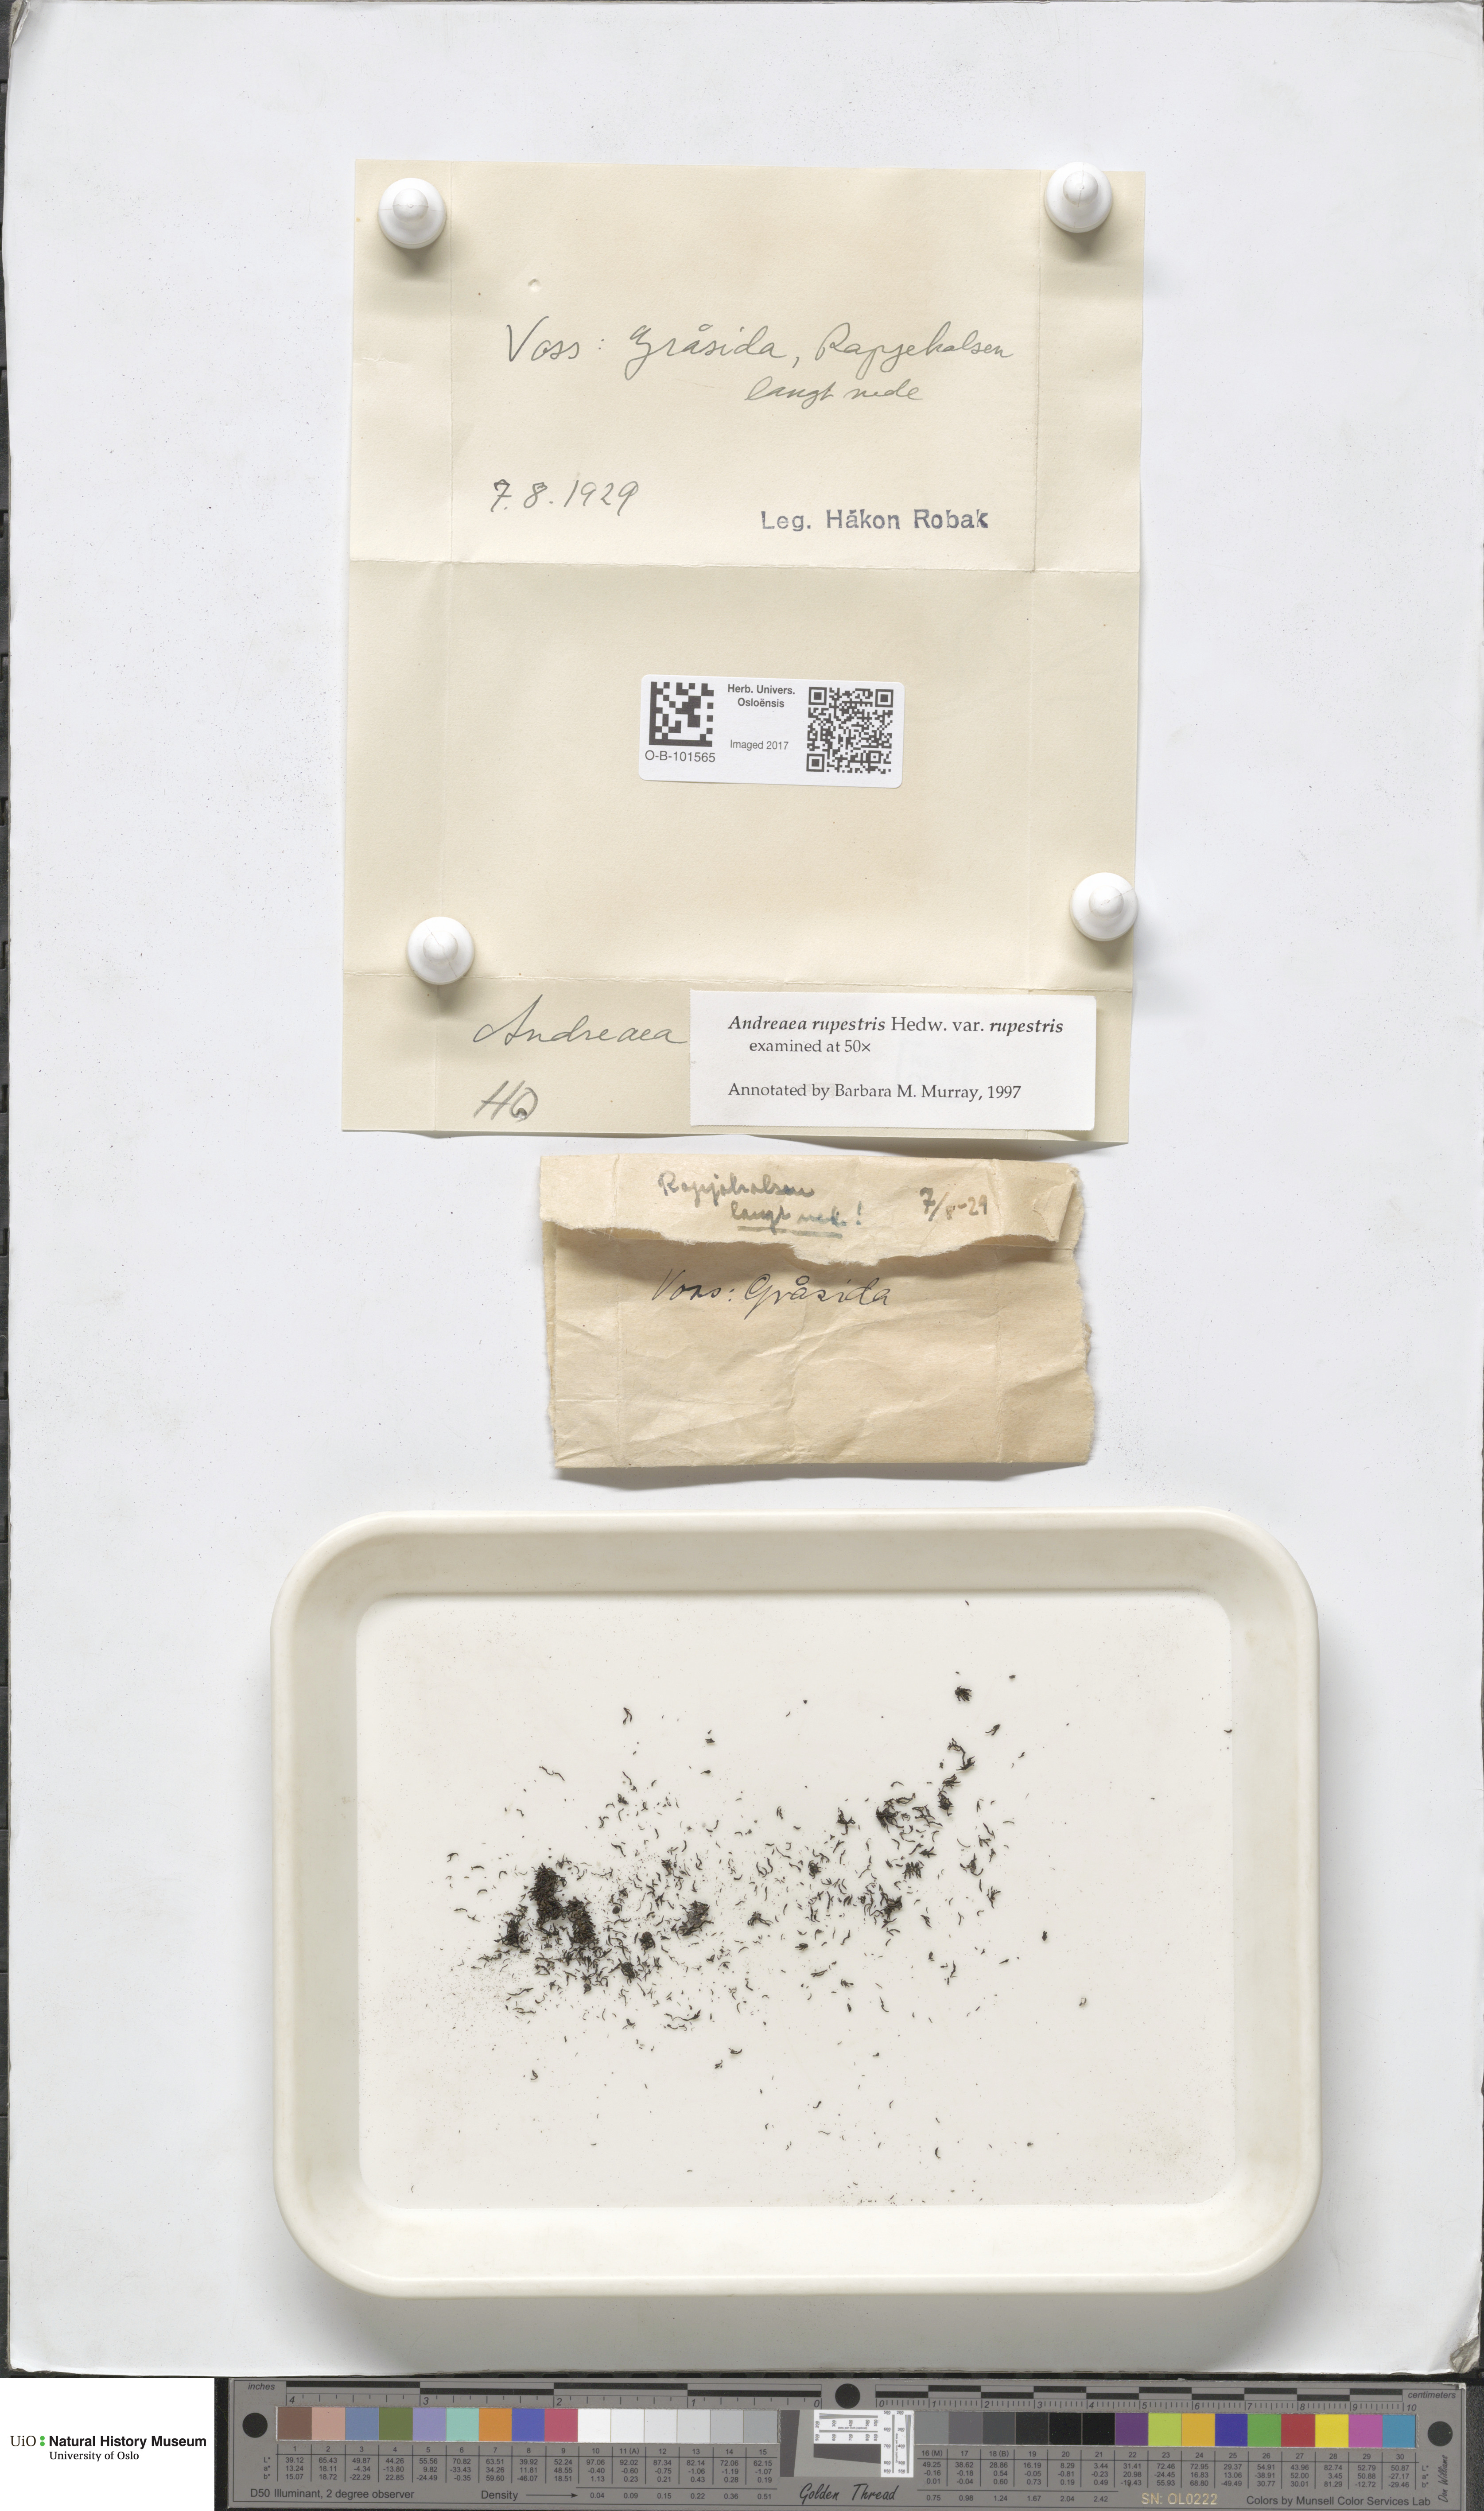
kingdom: Plantae
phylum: Bryophyta
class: Andreaeopsida
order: Andreaeales
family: Andreaeaceae
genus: Andreaea
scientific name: Andreaea rupestris
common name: Black rock moss
